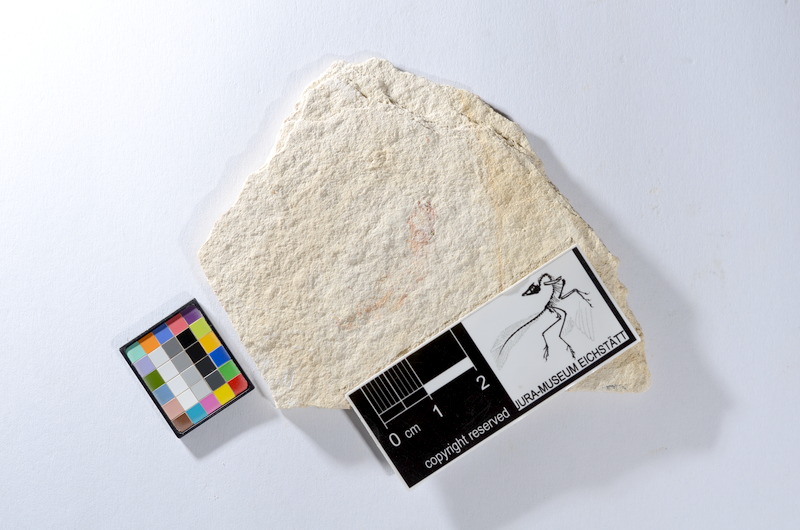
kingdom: Animalia
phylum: Chordata
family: Ascalaboidae
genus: Tharsis
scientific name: Tharsis dubius
